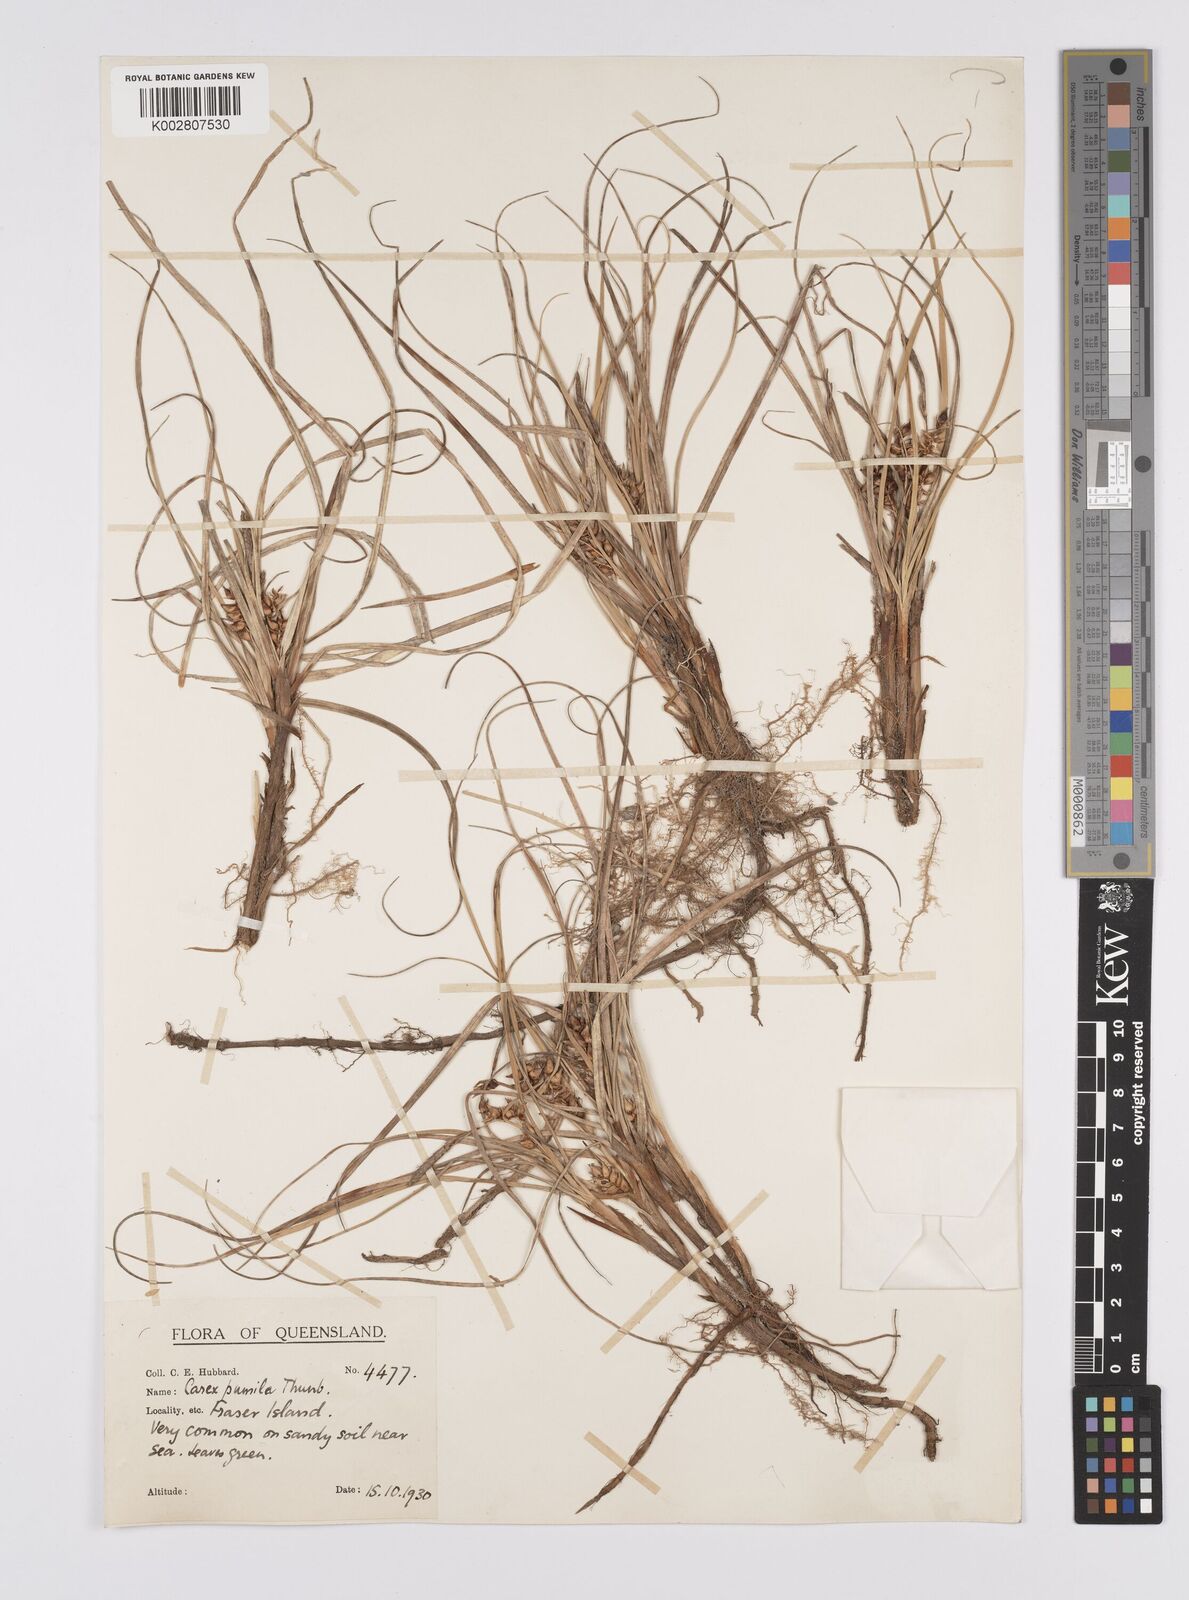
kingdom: Plantae
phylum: Tracheophyta
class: Liliopsida
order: Poales
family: Cyperaceae
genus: Carex
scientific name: Carex pumila
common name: Dwarf sedge
